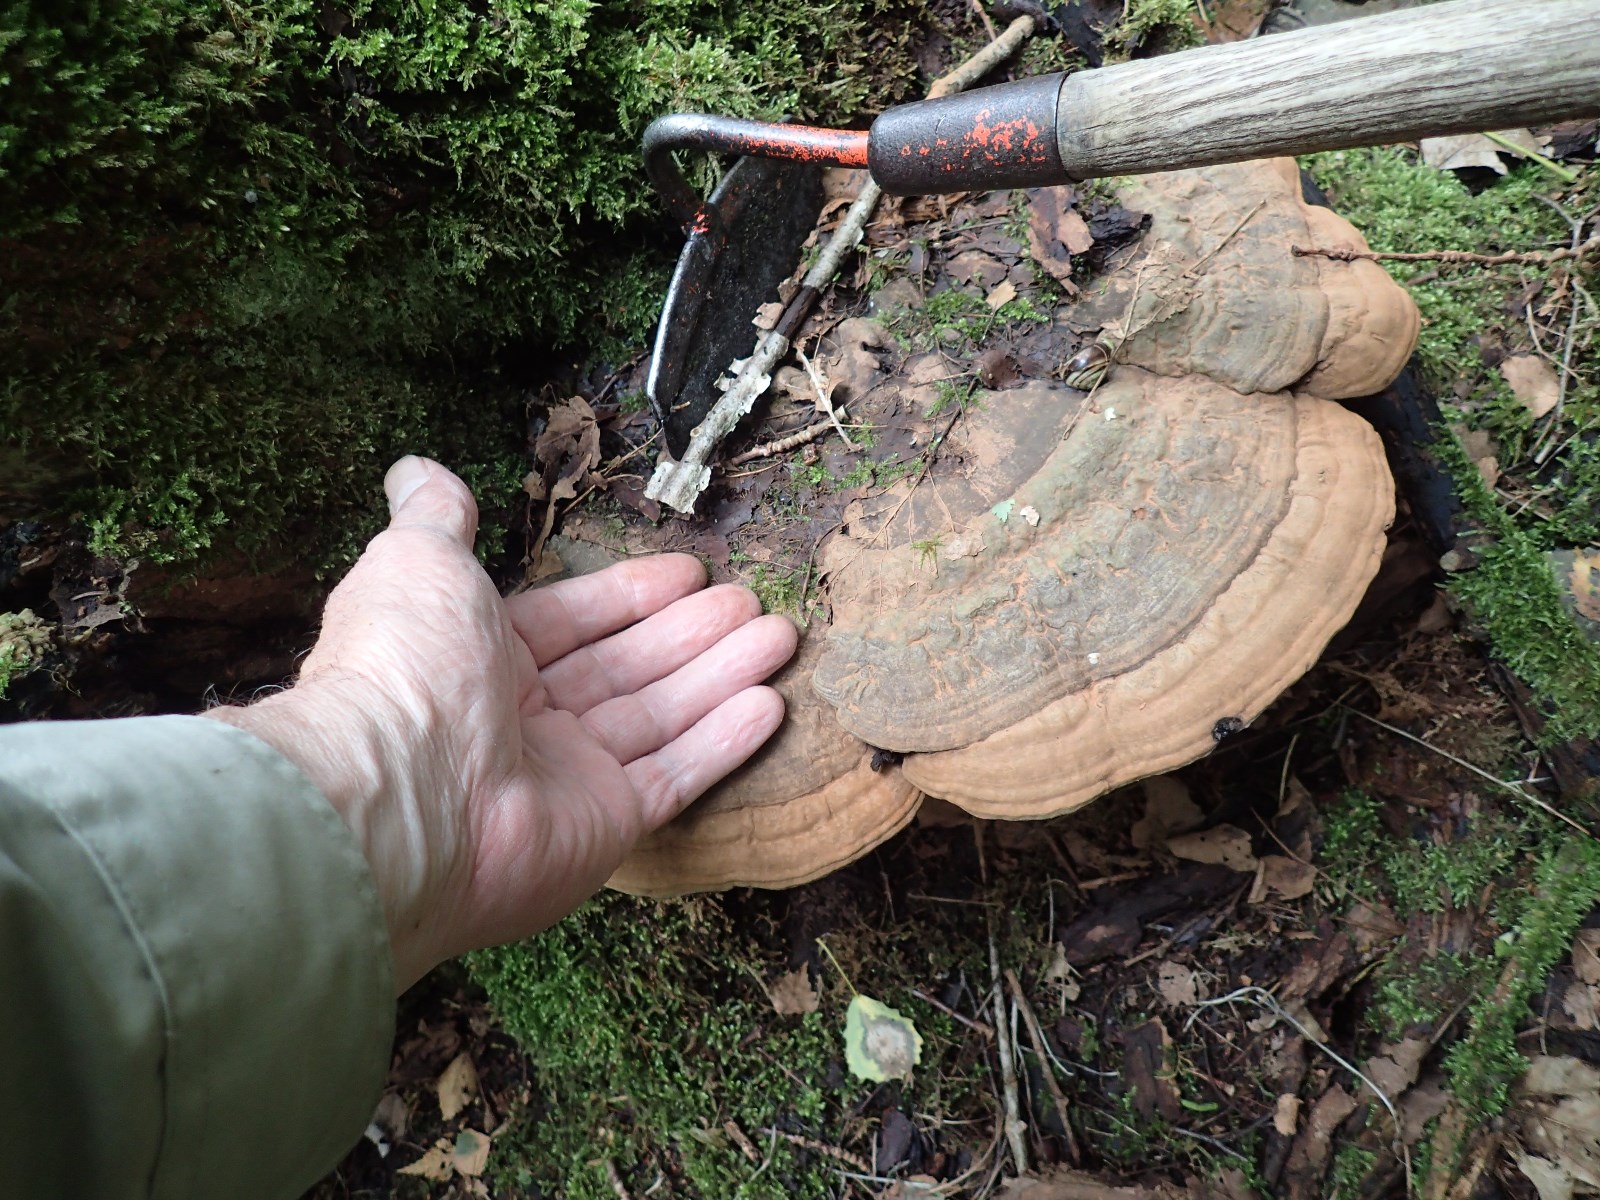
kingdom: Fungi
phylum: Basidiomycota
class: Agaricomycetes
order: Polyporales
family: Polyporaceae
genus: Ganoderma
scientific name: Ganoderma applanatum
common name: flad lakporesvamp
